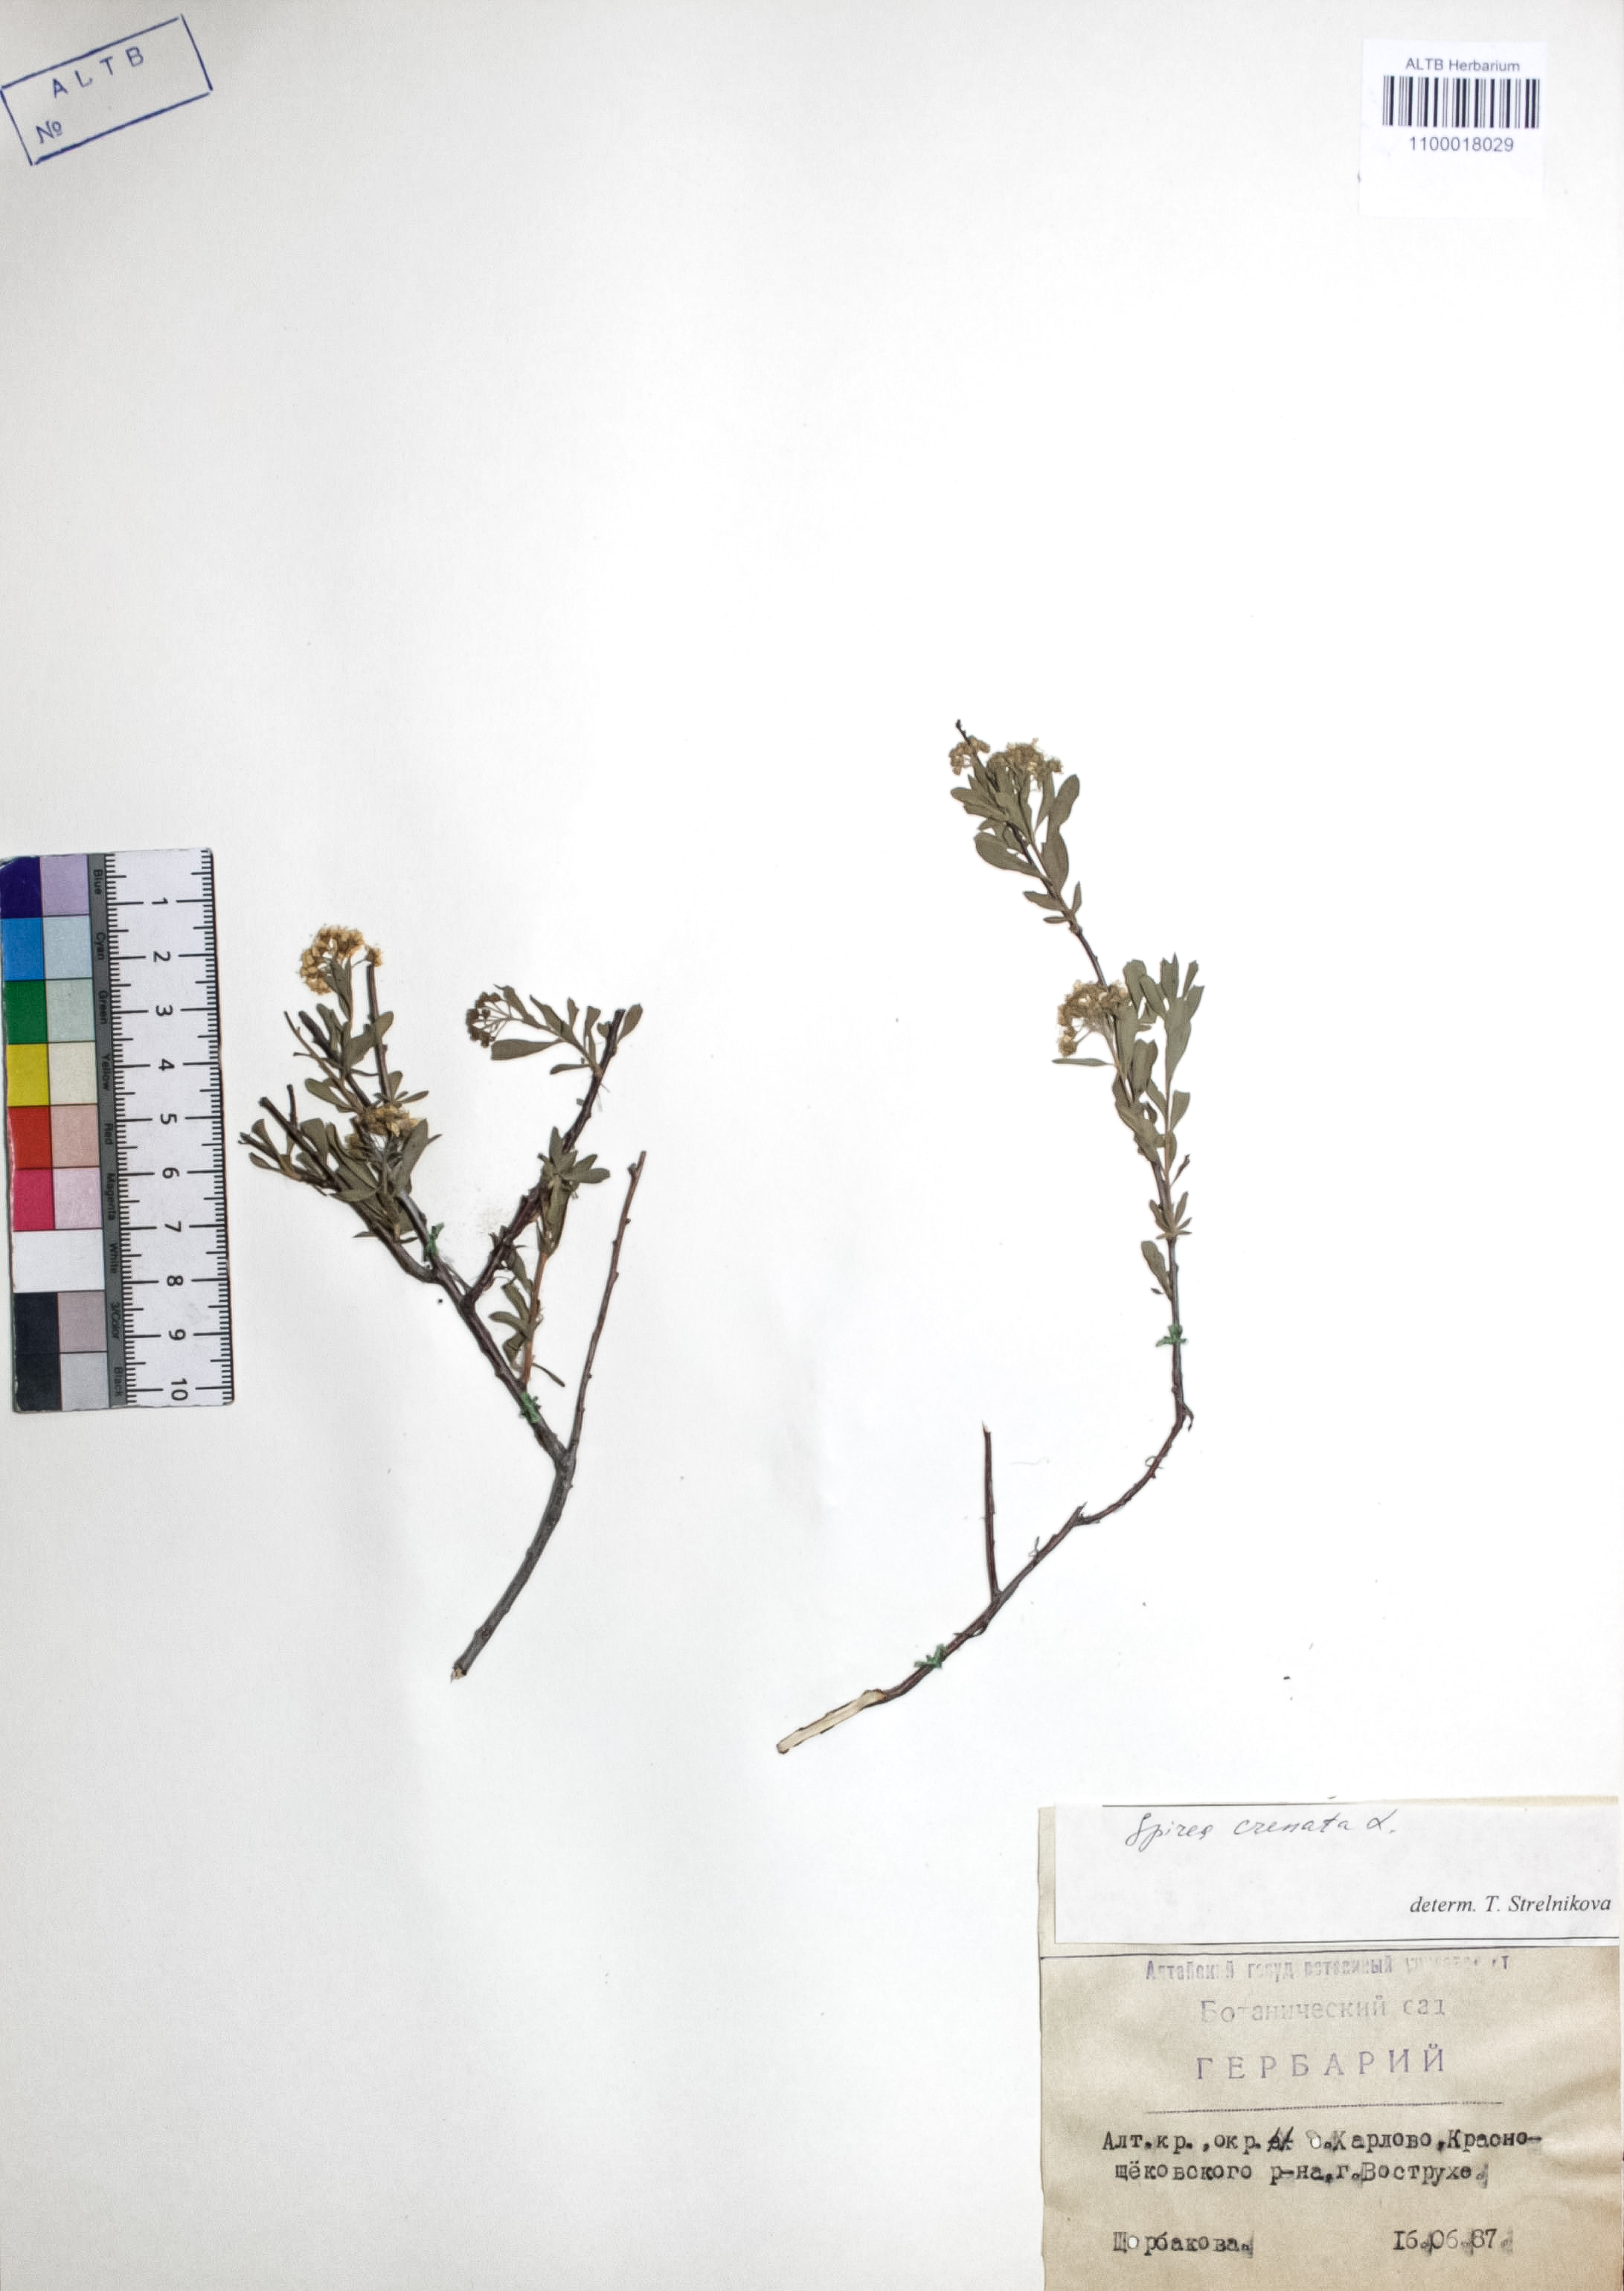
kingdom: Plantae
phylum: Tracheophyta
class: Magnoliopsida
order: Rosales
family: Rosaceae
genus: Spiraea
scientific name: Spiraea crenata
